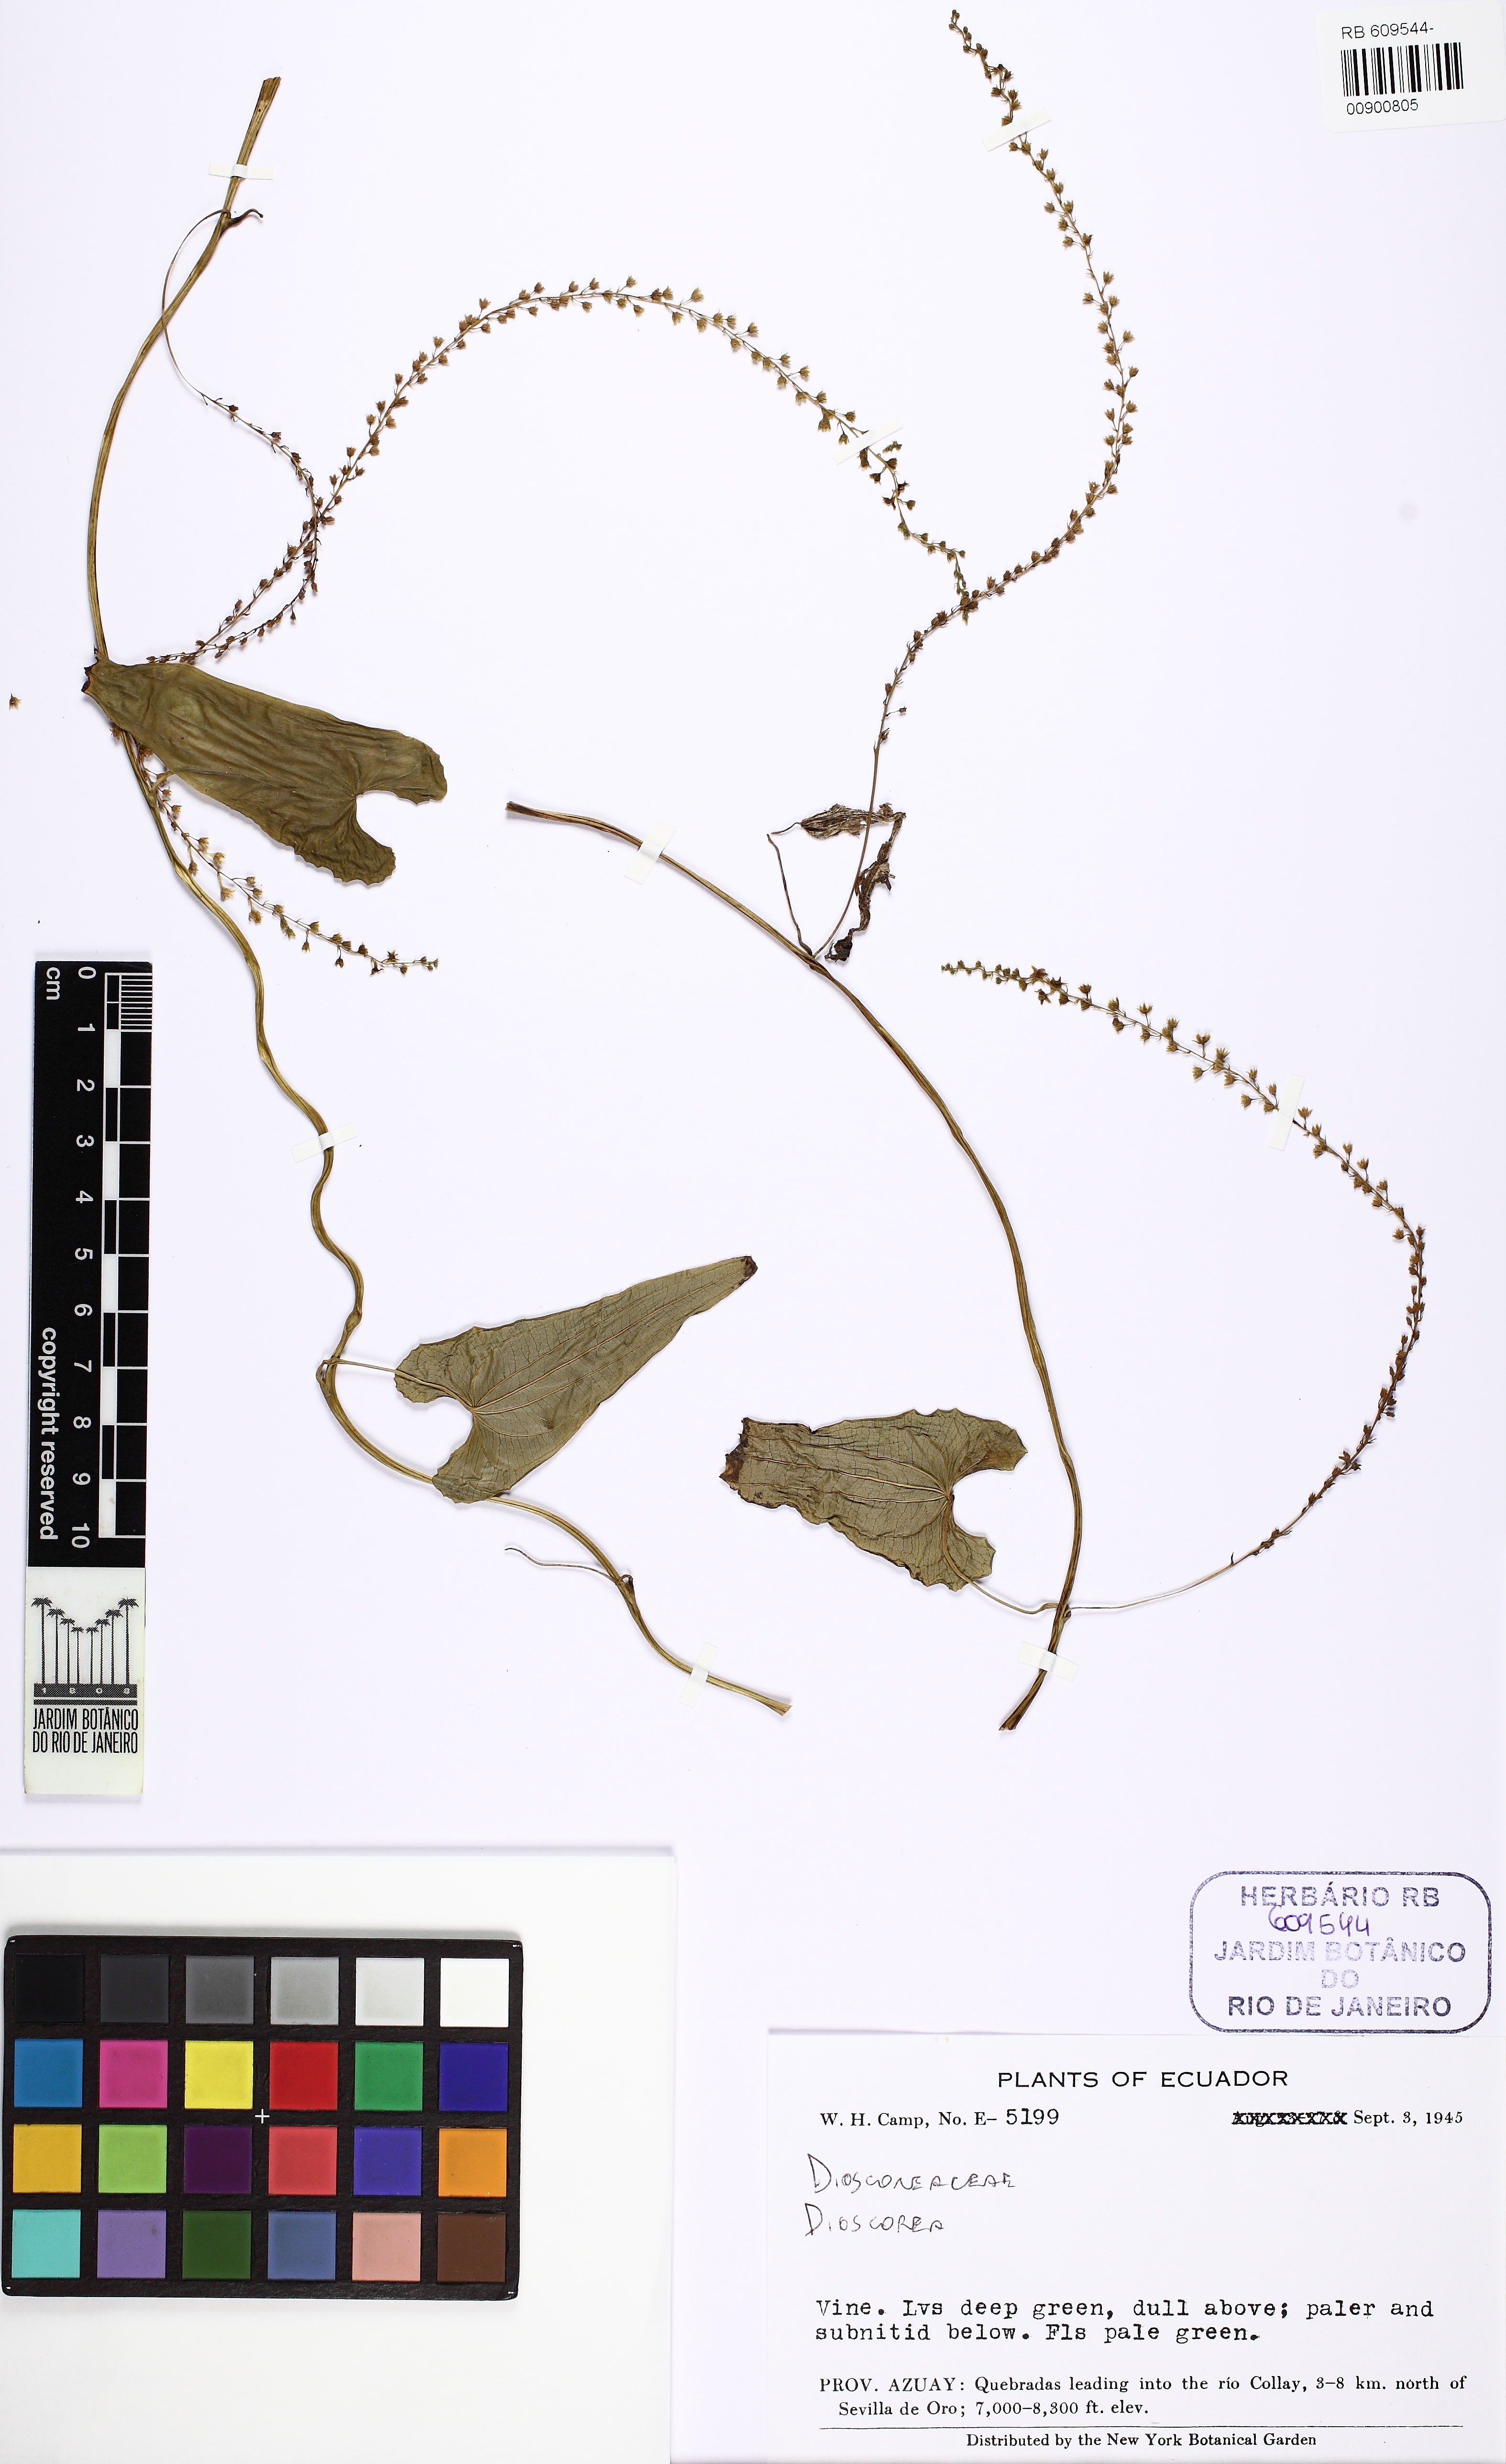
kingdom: Plantae
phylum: Tracheophyta
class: Liliopsida
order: Dioscoreales
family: Dioscoreaceae
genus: Dioscorea
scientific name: Dioscorea
